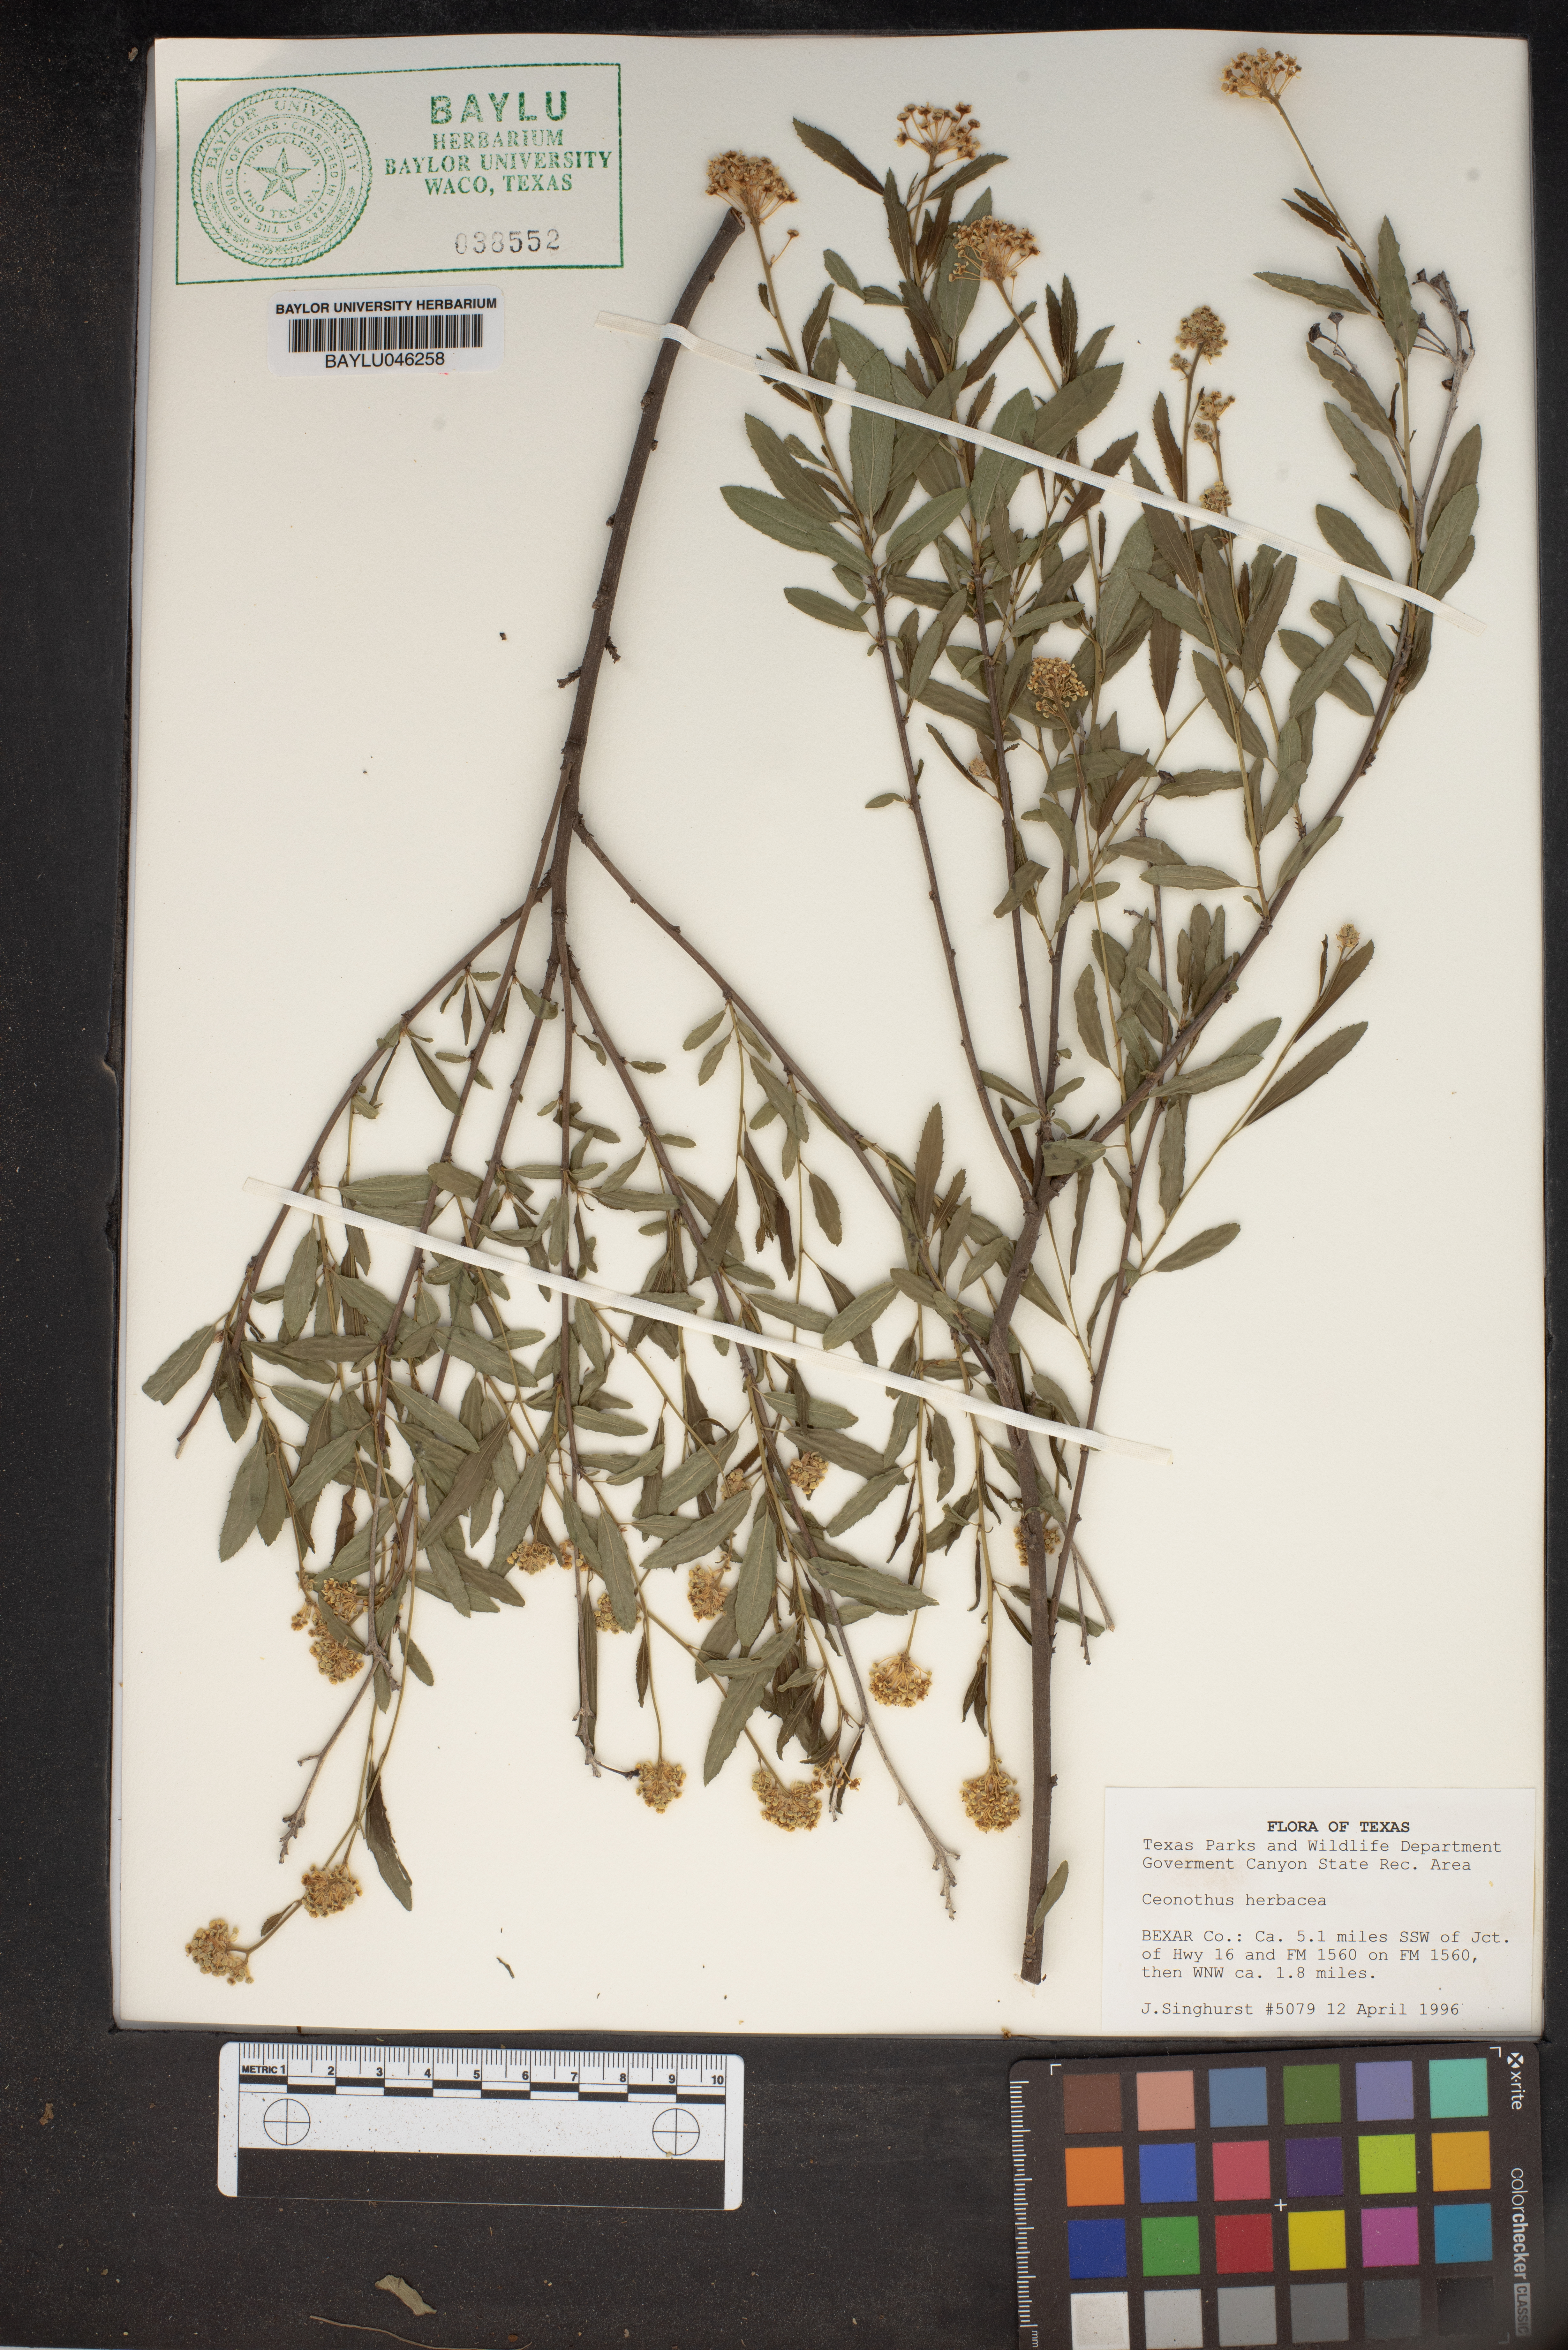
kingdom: Plantae
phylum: Tracheophyta
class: Magnoliopsida
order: Rosales
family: Rhamnaceae
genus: Ceanothus
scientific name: Ceanothus herbaceus
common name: Inland ceanothus
